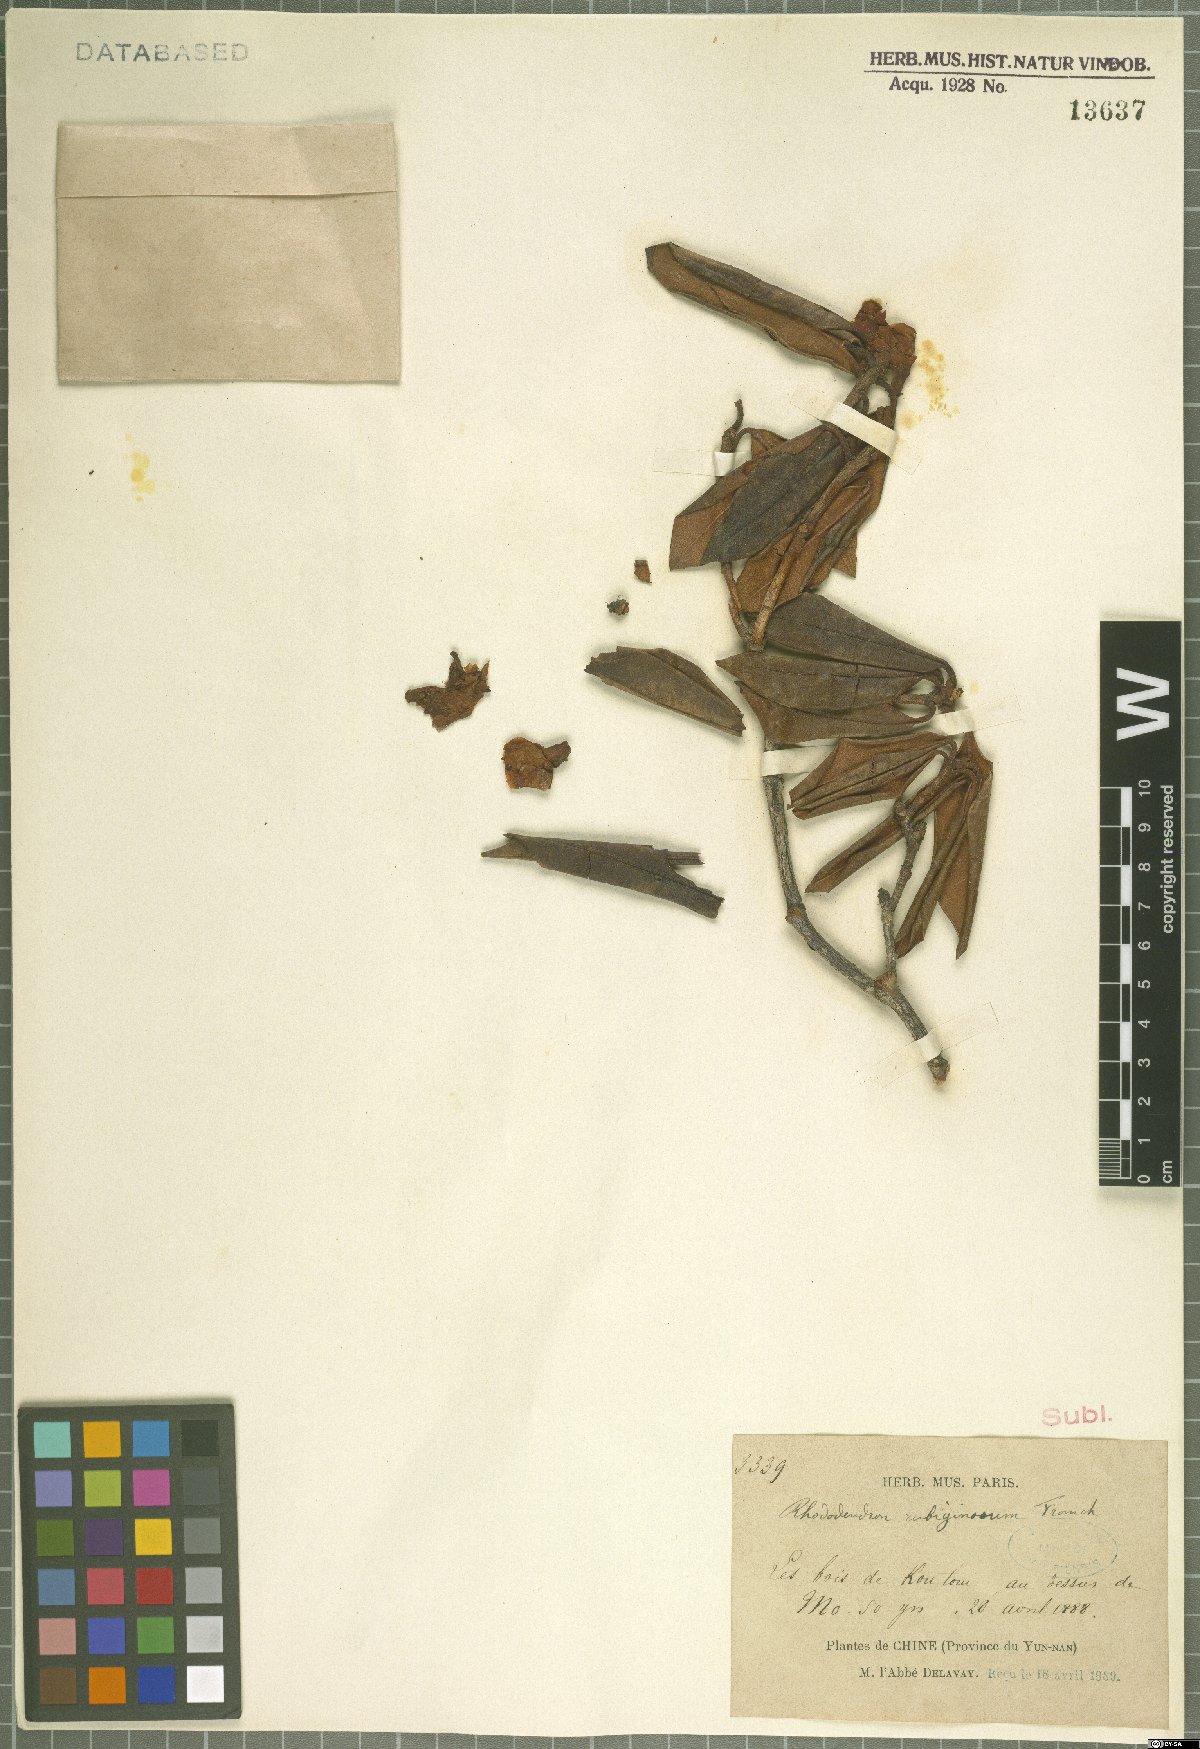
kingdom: Plantae
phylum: Tracheophyta
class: Magnoliopsida
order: Ericales
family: Ericaceae
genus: Rhododendron
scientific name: Rhododendron rubiginosum
